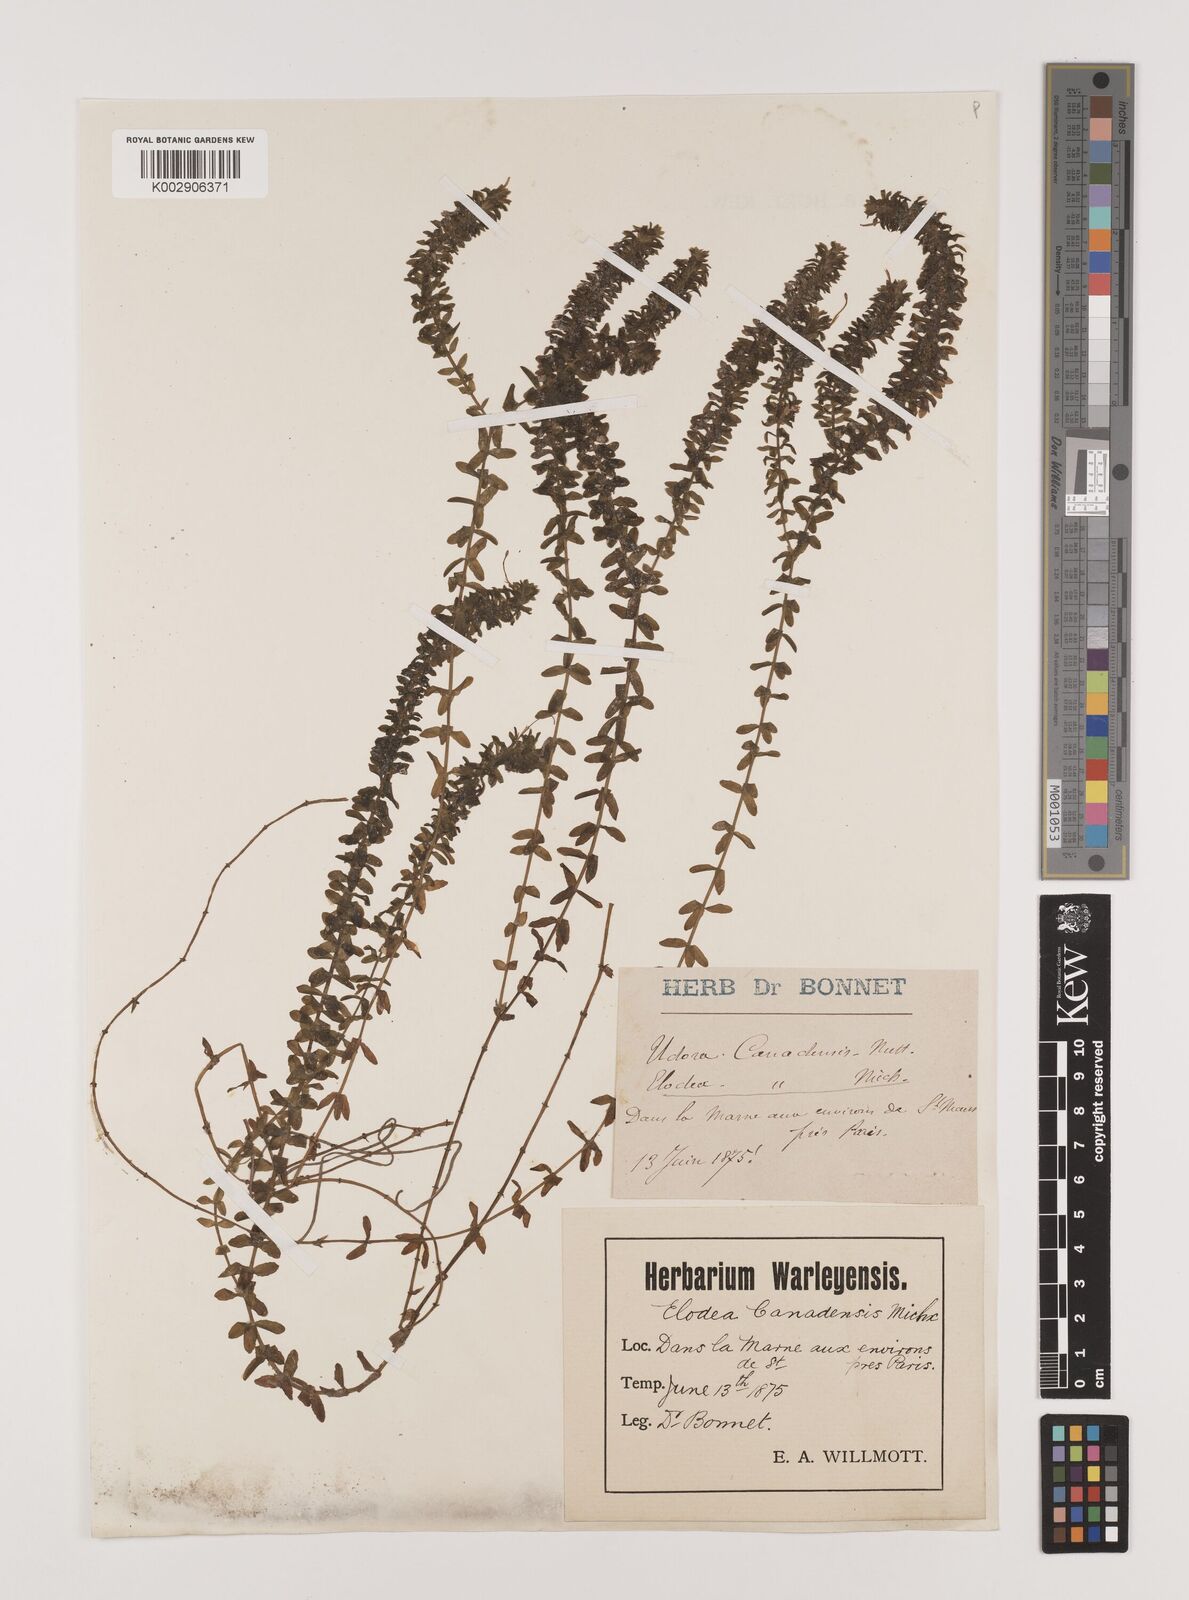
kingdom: Plantae
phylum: Tracheophyta
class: Liliopsida
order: Alismatales
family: Hydrocharitaceae
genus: Elodea
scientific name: Elodea canadensis
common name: Canadian waterweed
